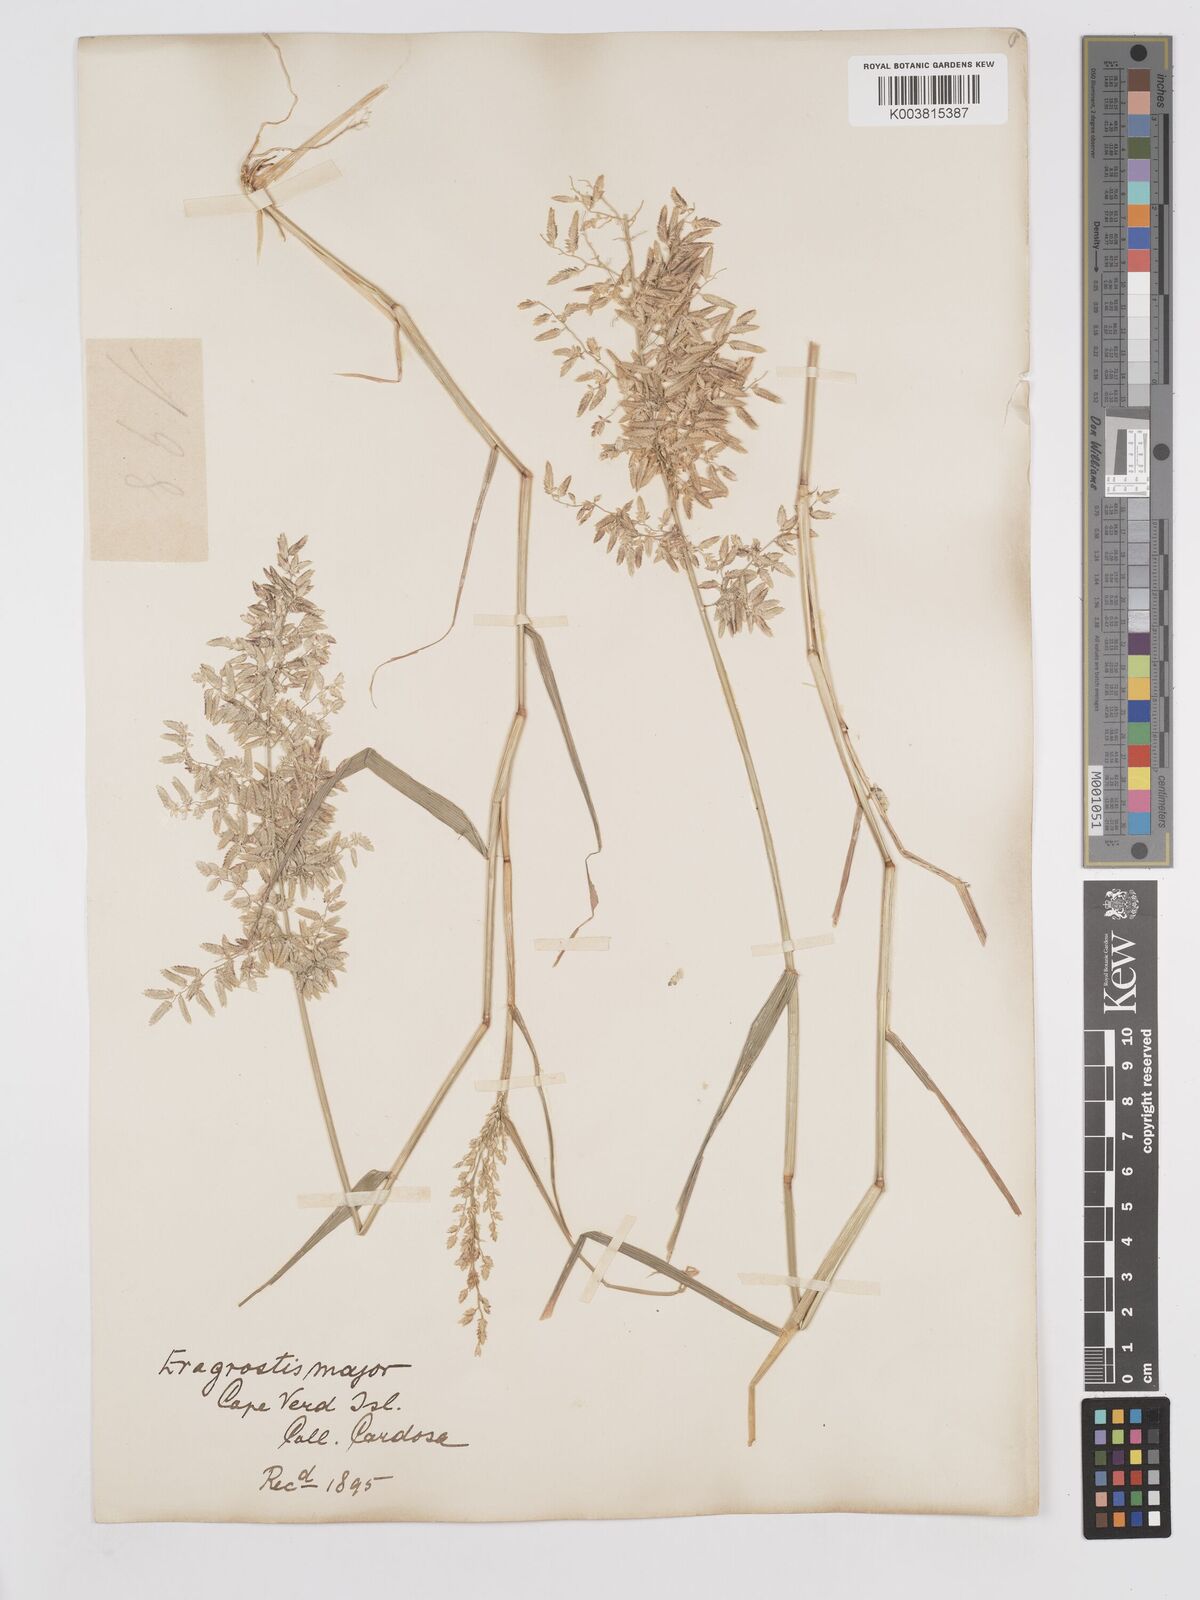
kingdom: Plantae
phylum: Tracheophyta
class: Liliopsida
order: Poales
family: Poaceae
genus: Eragrostis
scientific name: Eragrostis cilianensis
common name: Stinkgrass
